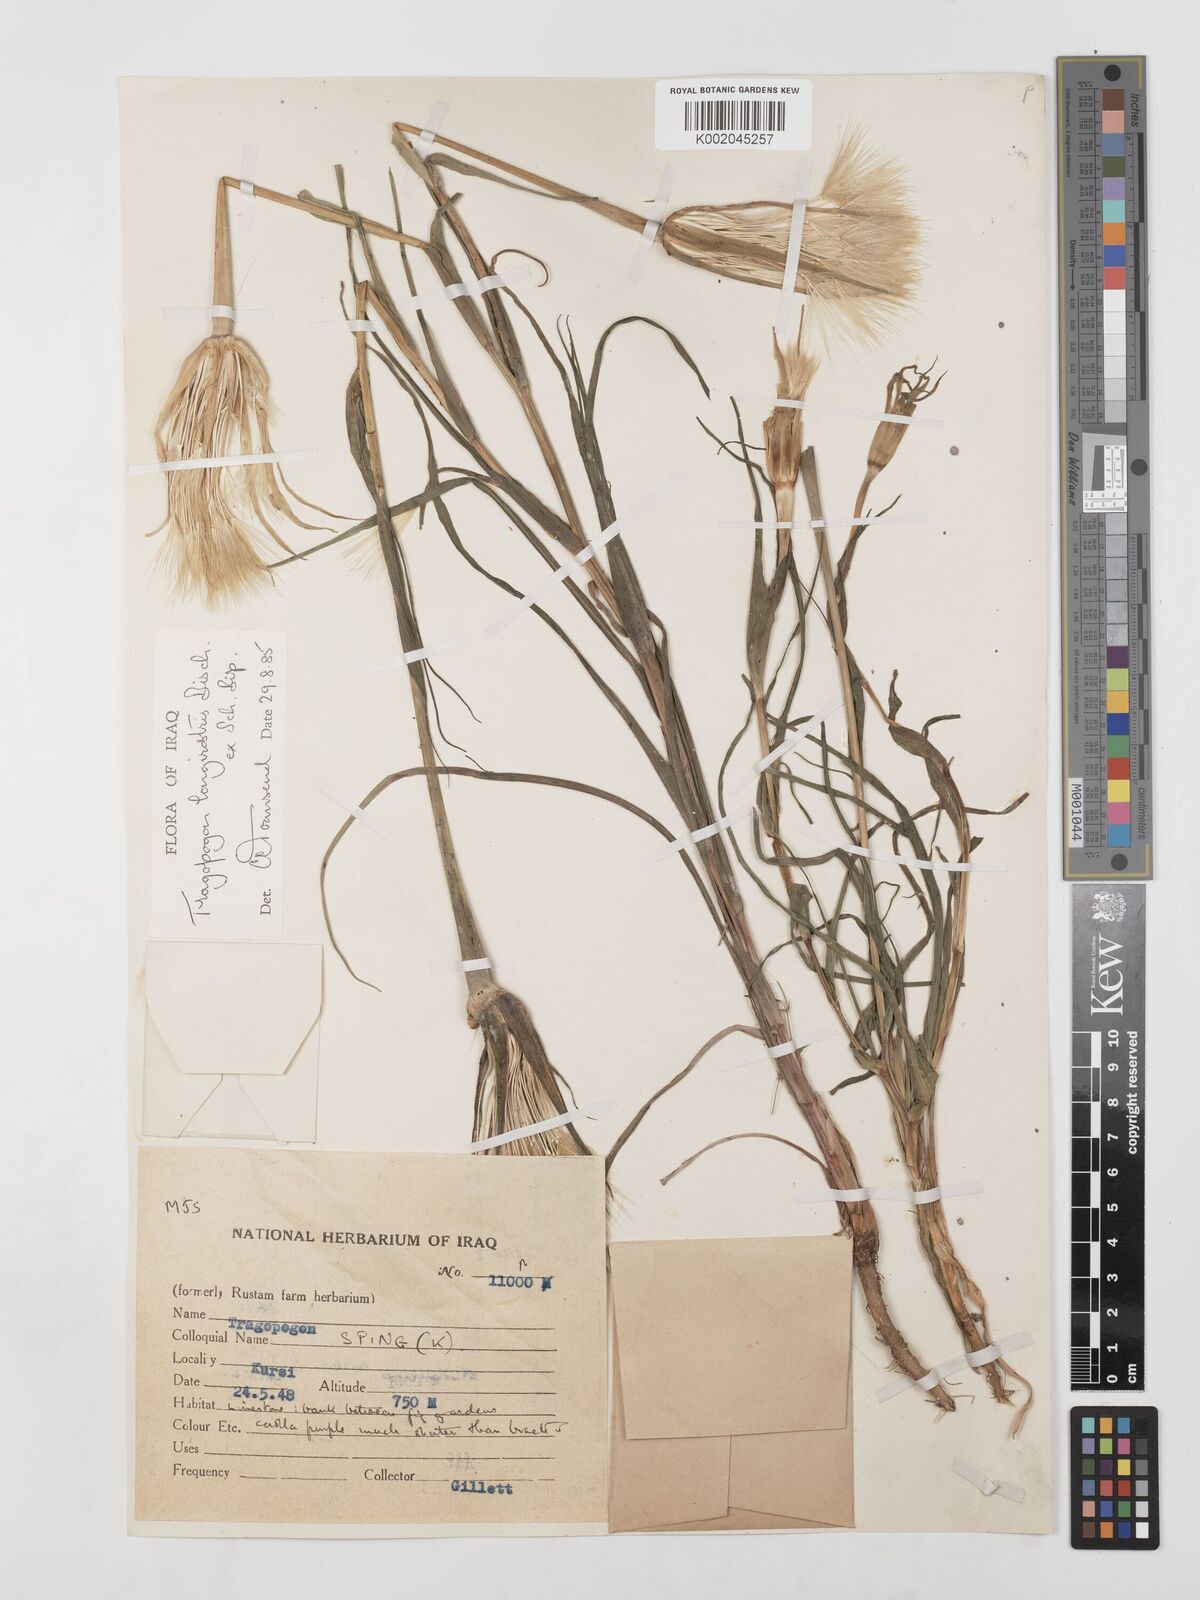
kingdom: Plantae
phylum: Tracheophyta
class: Magnoliopsida
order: Asterales
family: Asteraceae
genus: Tragopogon
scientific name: Tragopogon coelesyriacus
